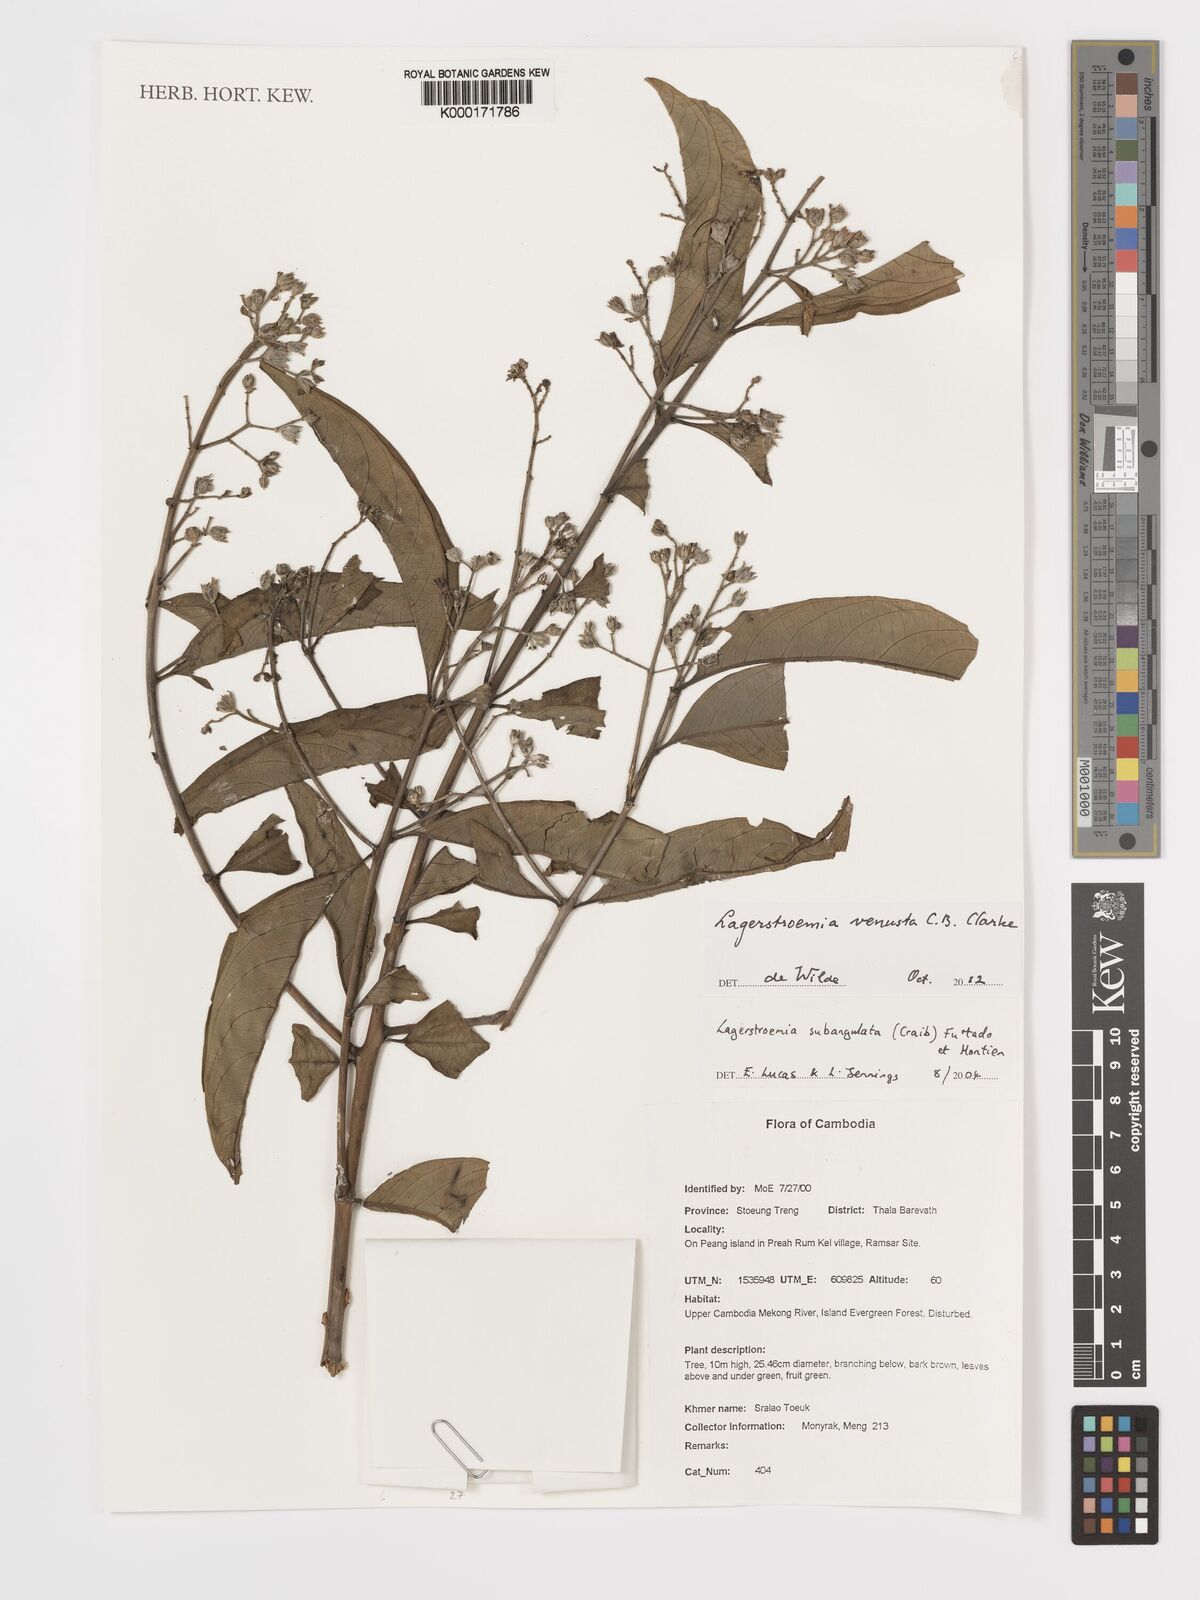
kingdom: Plantae
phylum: Tracheophyta
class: Magnoliopsida
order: Myrtales
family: Lythraceae
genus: Lagerstroemia
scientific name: Lagerstroemia subangulata
